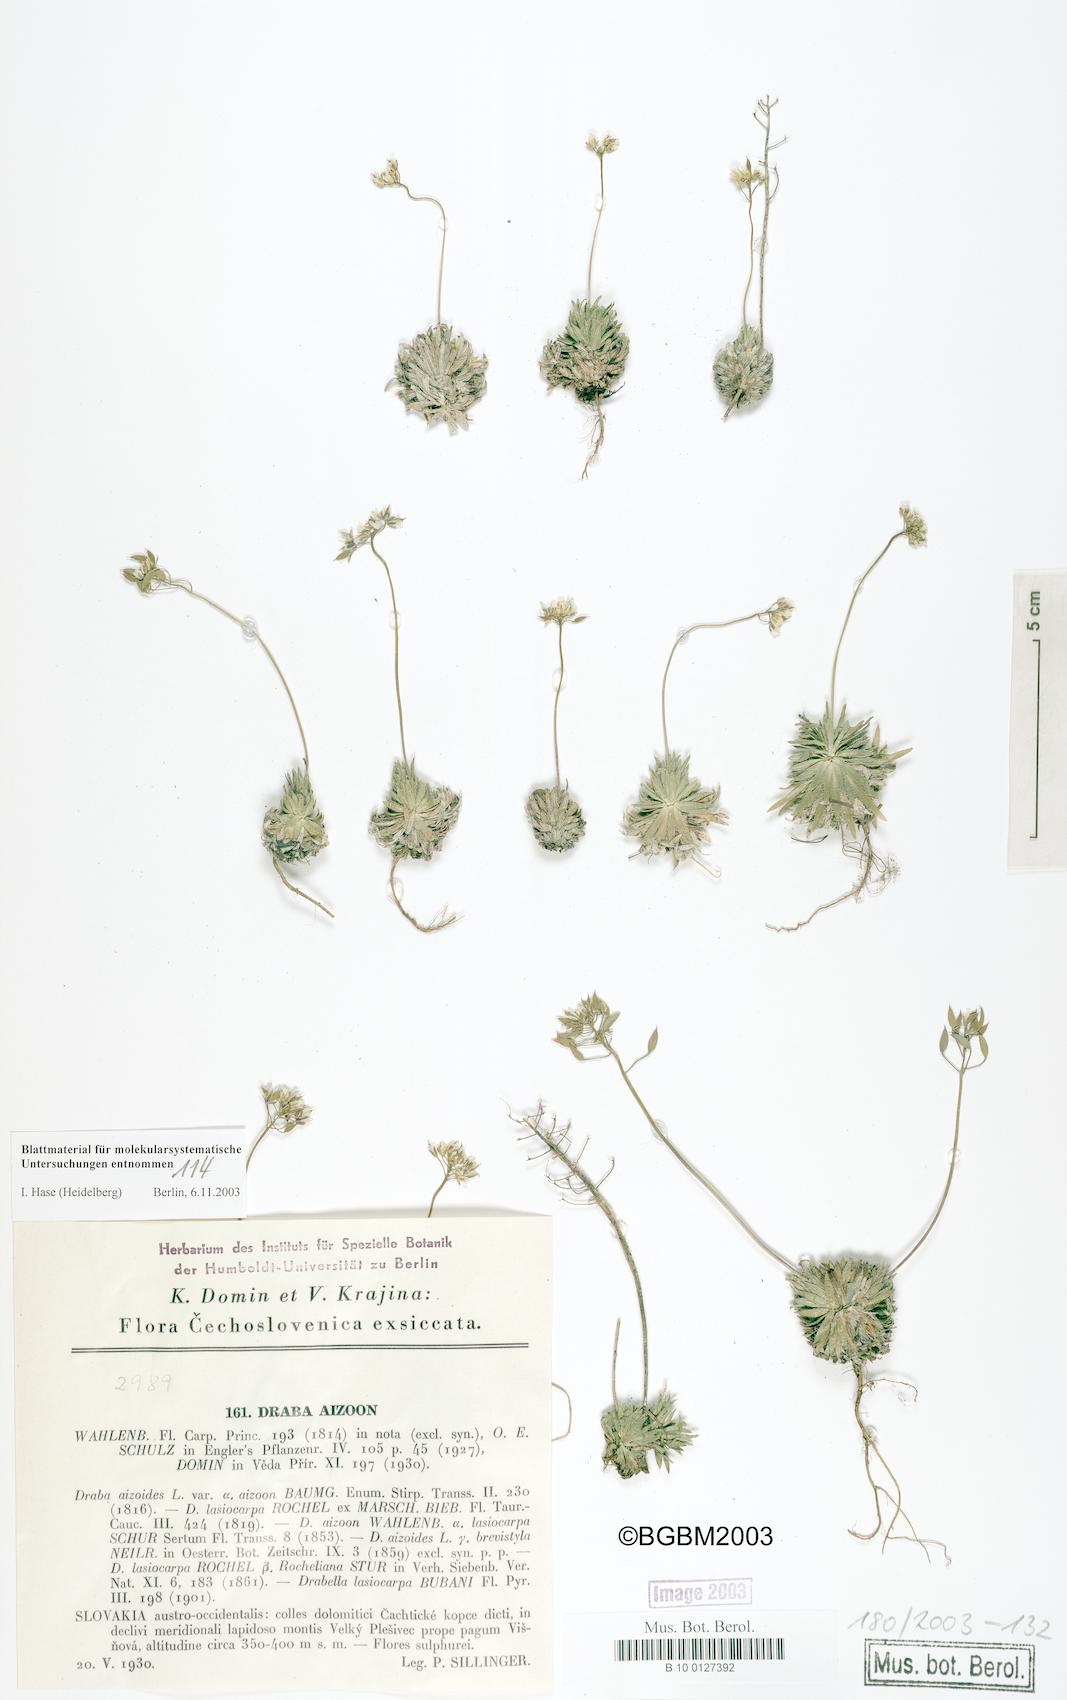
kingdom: Plantae
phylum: Tracheophyta
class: Magnoliopsida
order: Brassicales
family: Brassicaceae
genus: Draba
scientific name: Draba lasiocarpa
